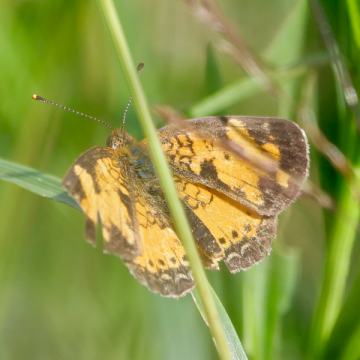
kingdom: Animalia
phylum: Arthropoda
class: Insecta
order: Lepidoptera
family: Nymphalidae
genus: Phyciodes
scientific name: Phyciodes tharos
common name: Northern Crescent
